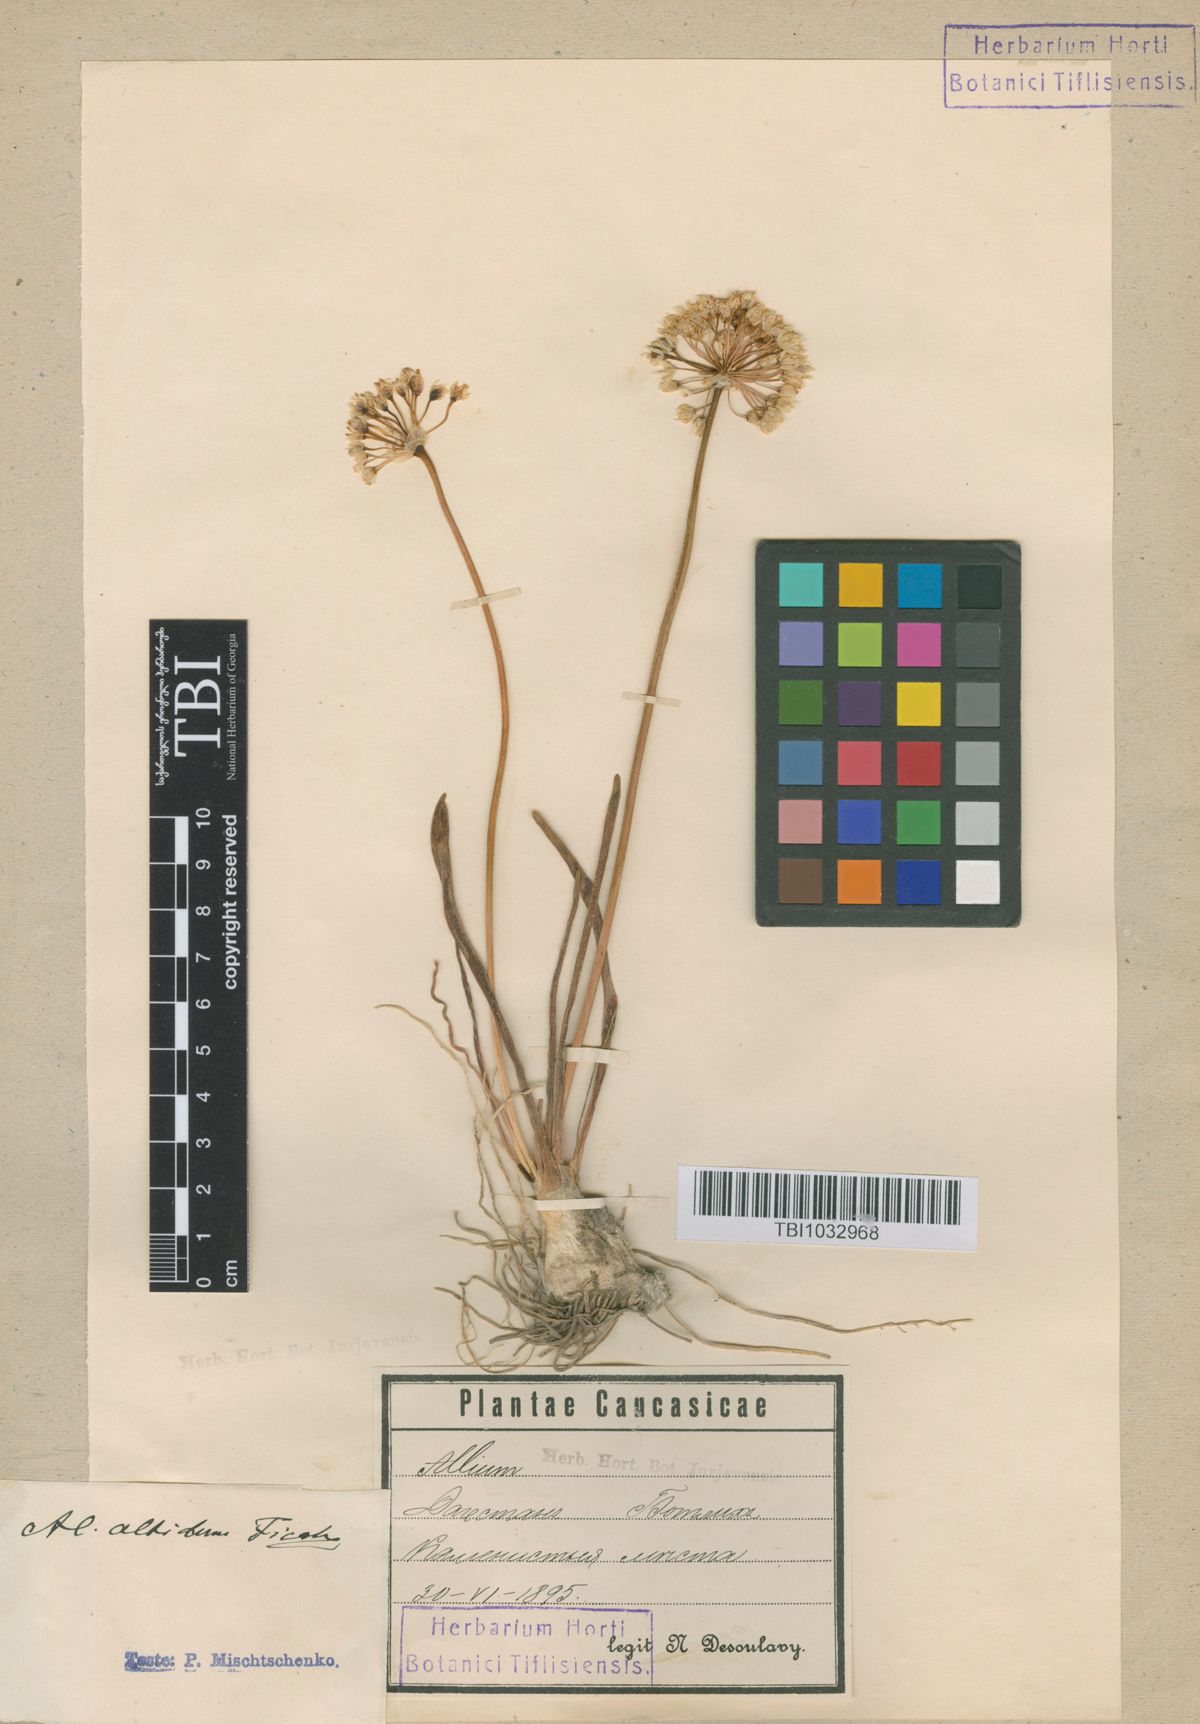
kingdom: Plantae
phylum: Tracheophyta
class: Liliopsida
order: Asparagales
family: Amaryllidaceae
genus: Allium
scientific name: Allium denudatum
